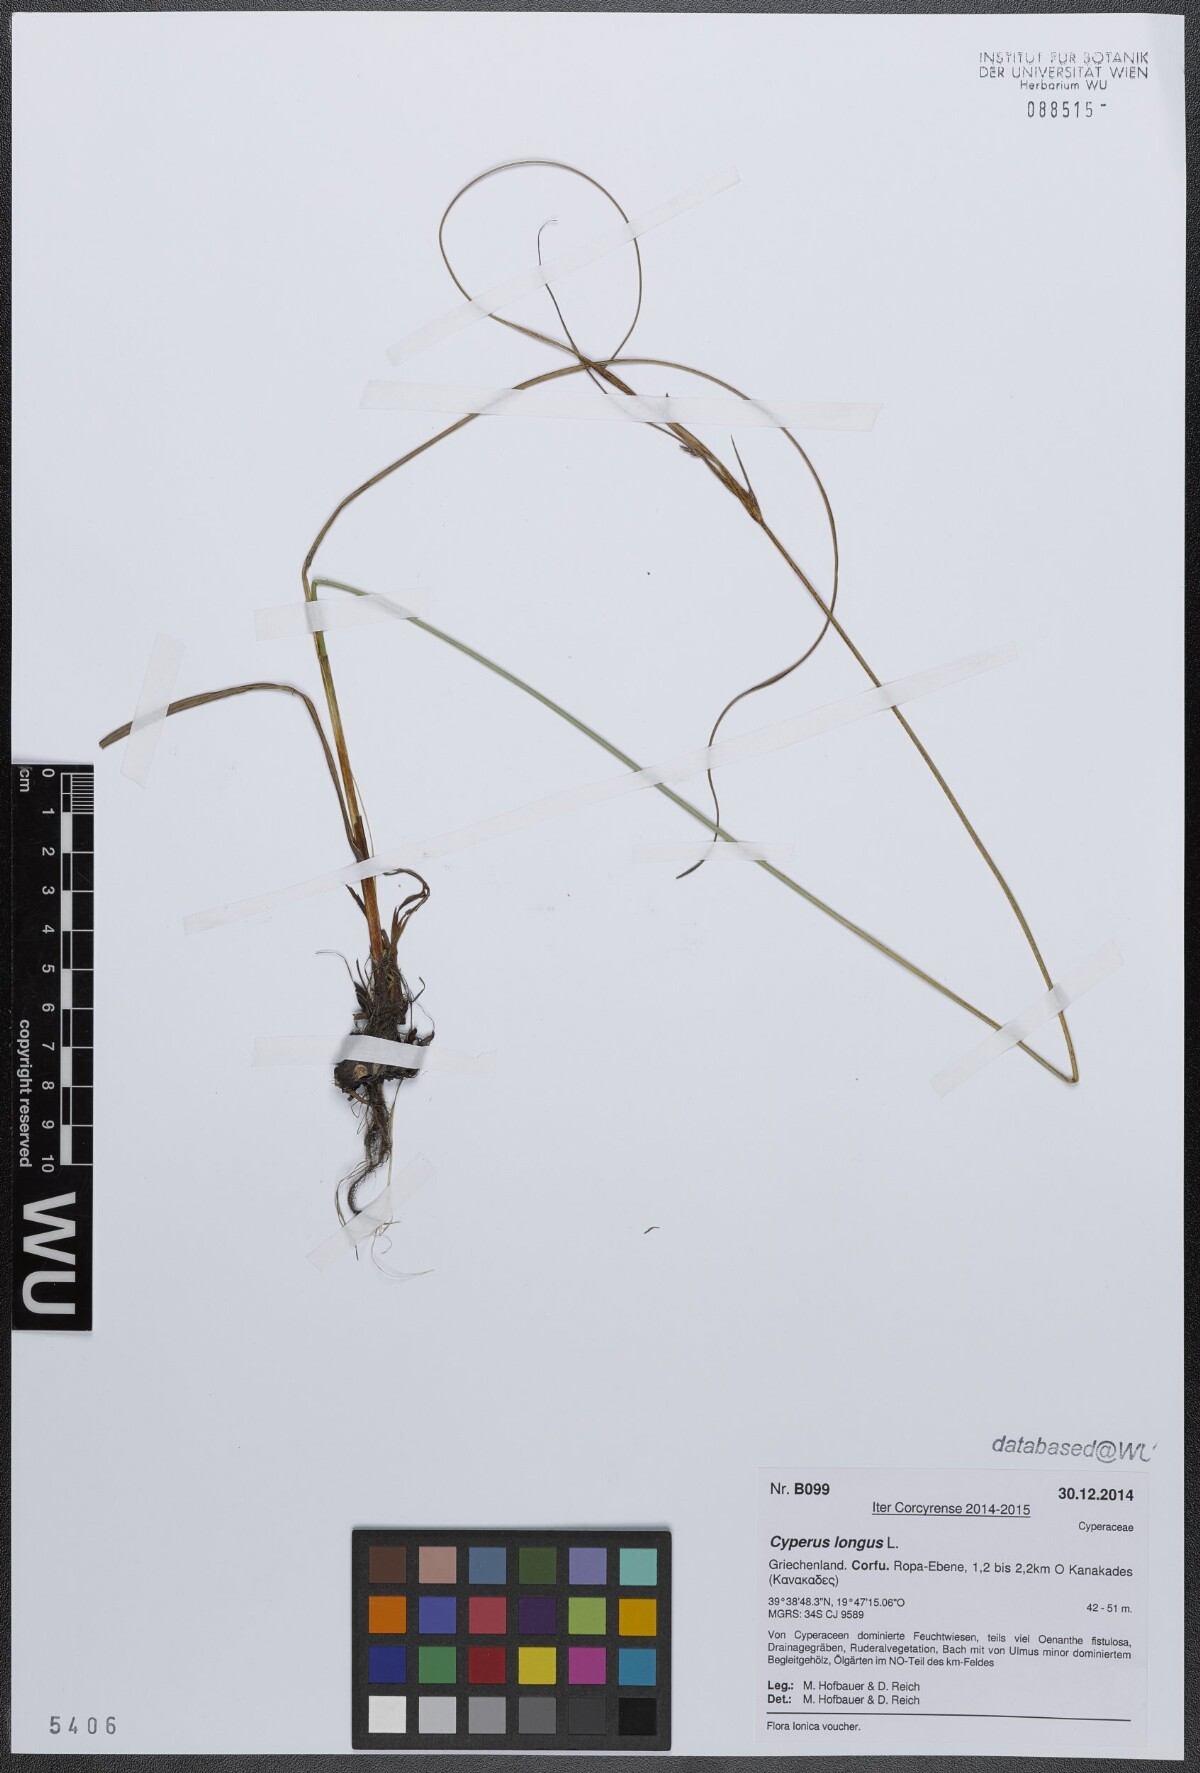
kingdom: Plantae
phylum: Tracheophyta
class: Liliopsida
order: Poales
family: Cyperaceae
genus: Cyperus
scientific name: Cyperus longus
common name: Galingale
